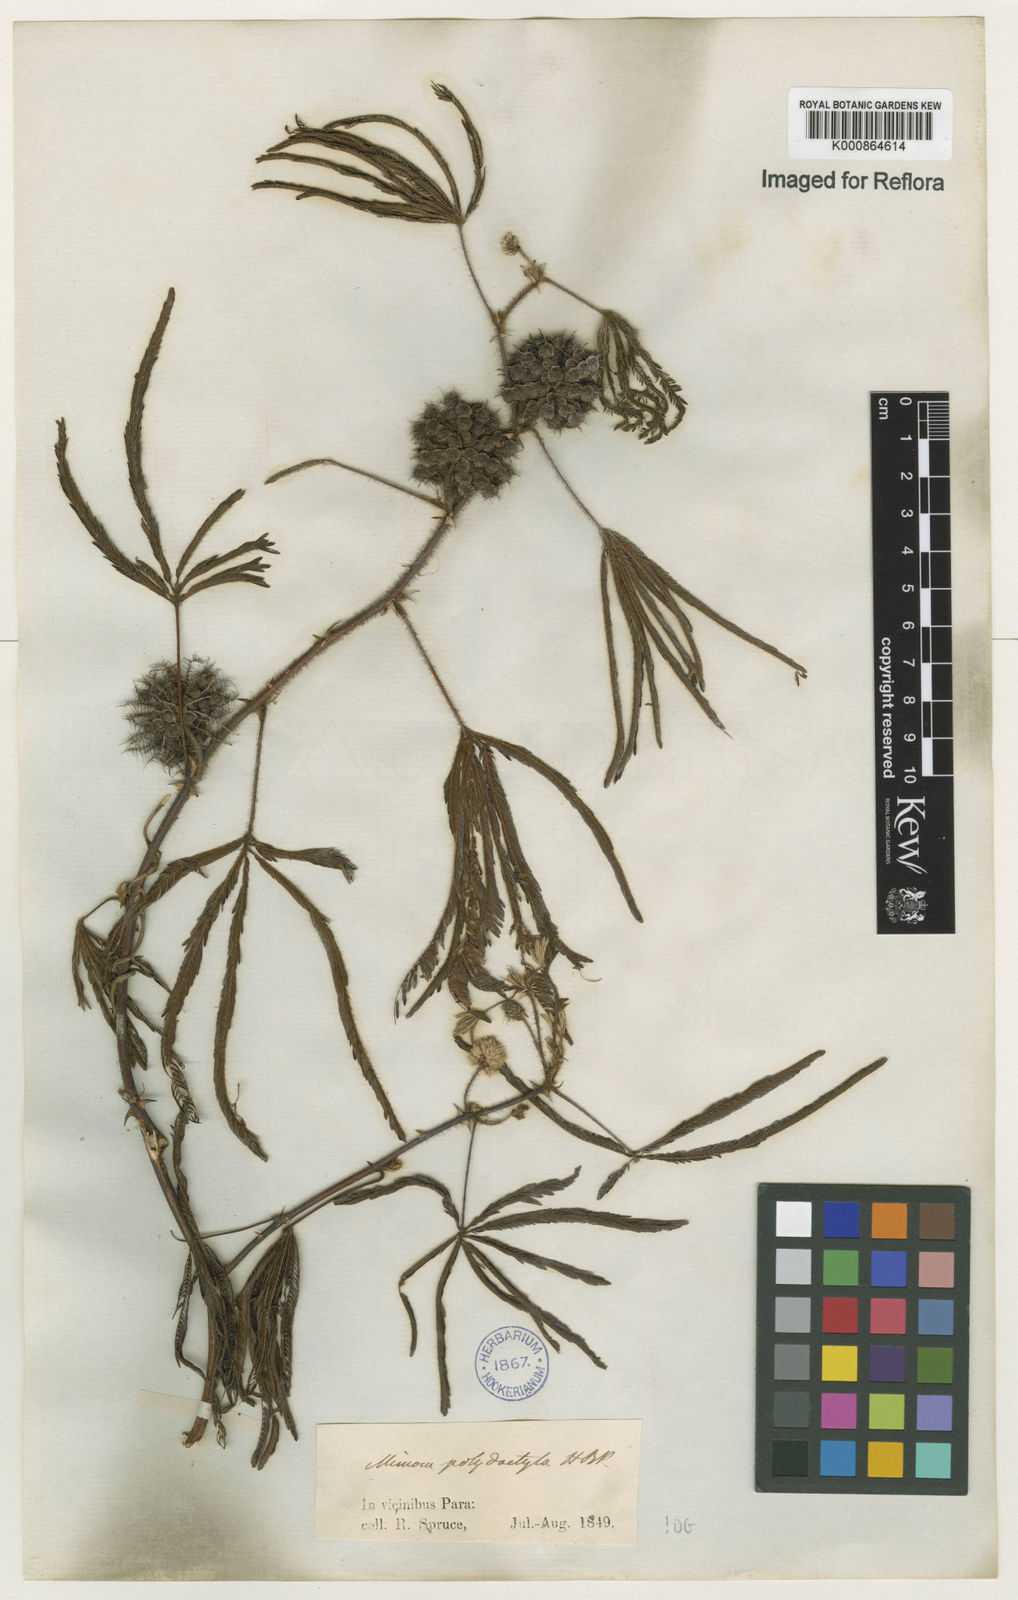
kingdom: Plantae
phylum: Tracheophyta
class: Magnoliopsida
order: Fabales
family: Fabaceae
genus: Mimosa
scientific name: Mimosa polydactyla
